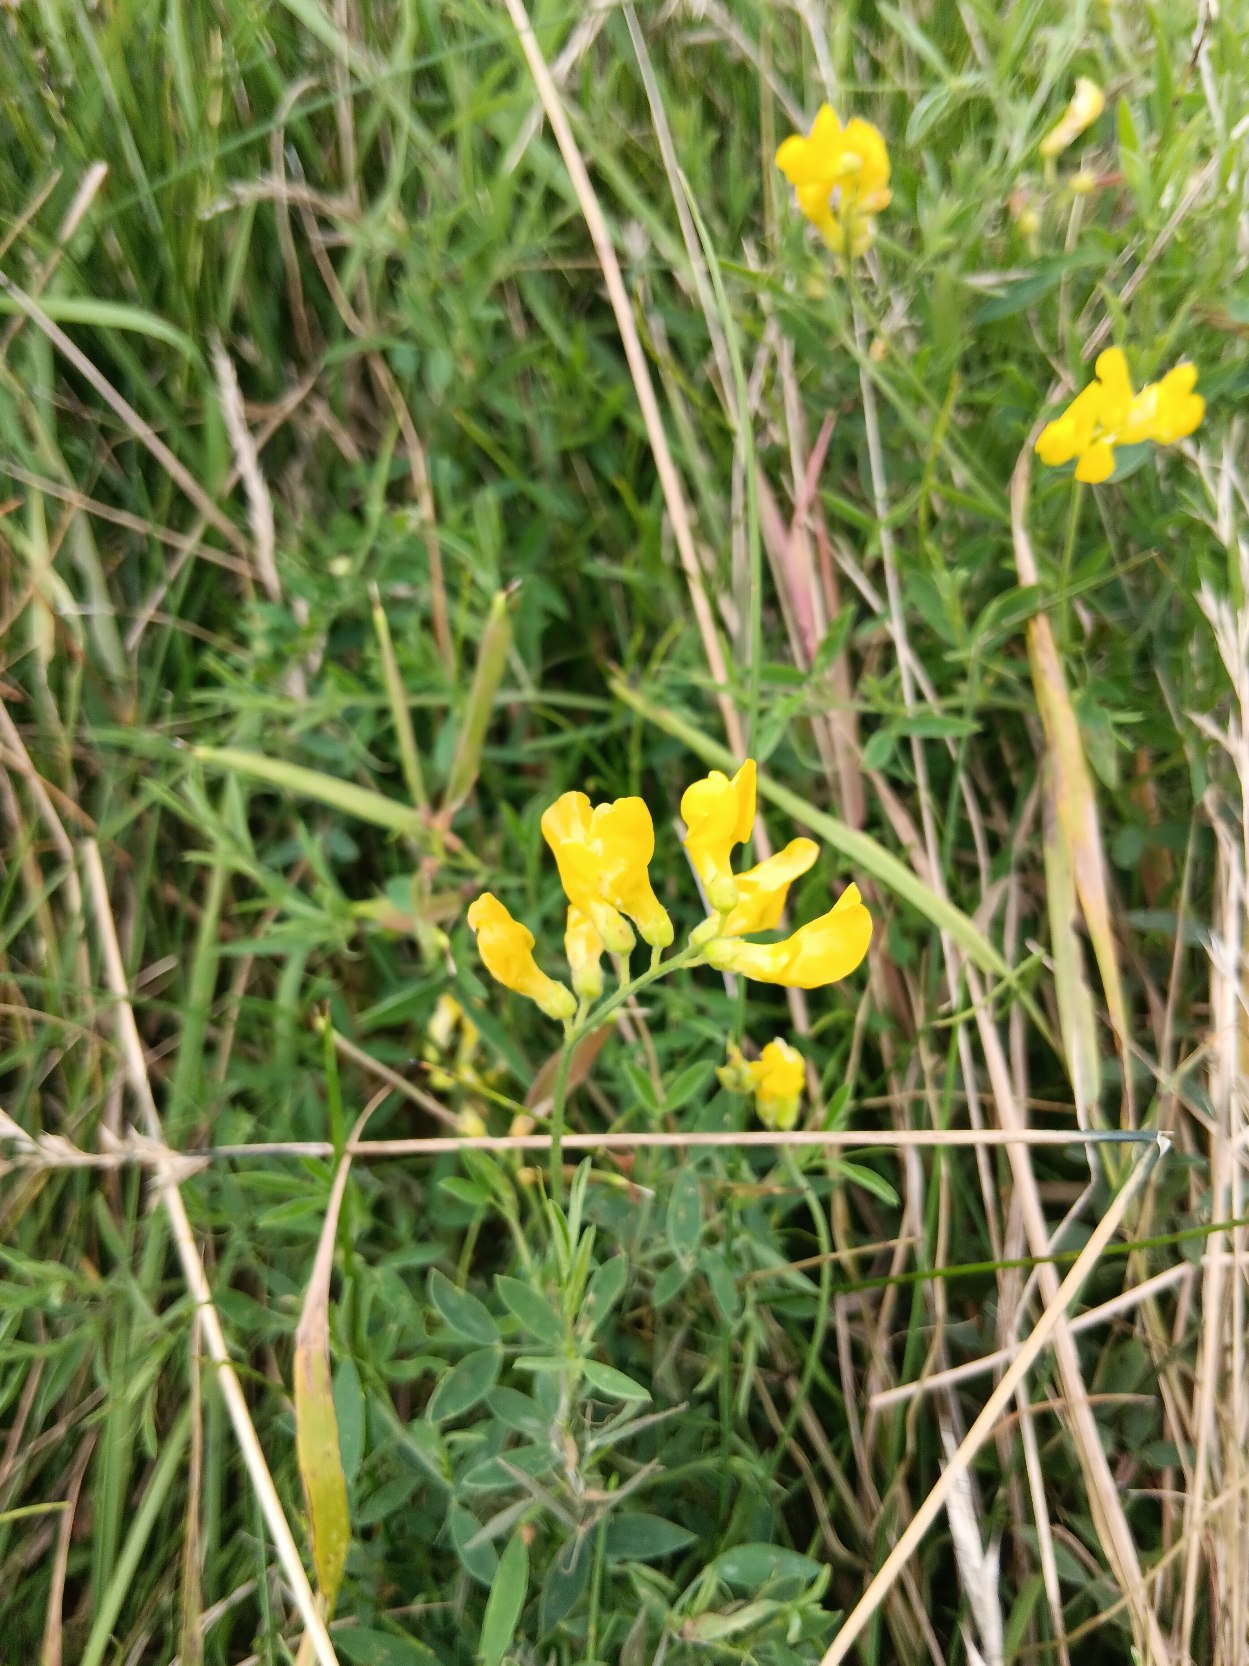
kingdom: Plantae
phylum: Tracheophyta
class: Magnoliopsida
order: Fabales
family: Fabaceae
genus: Lathyrus
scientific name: Lathyrus pratensis
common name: Gul fladbælg
